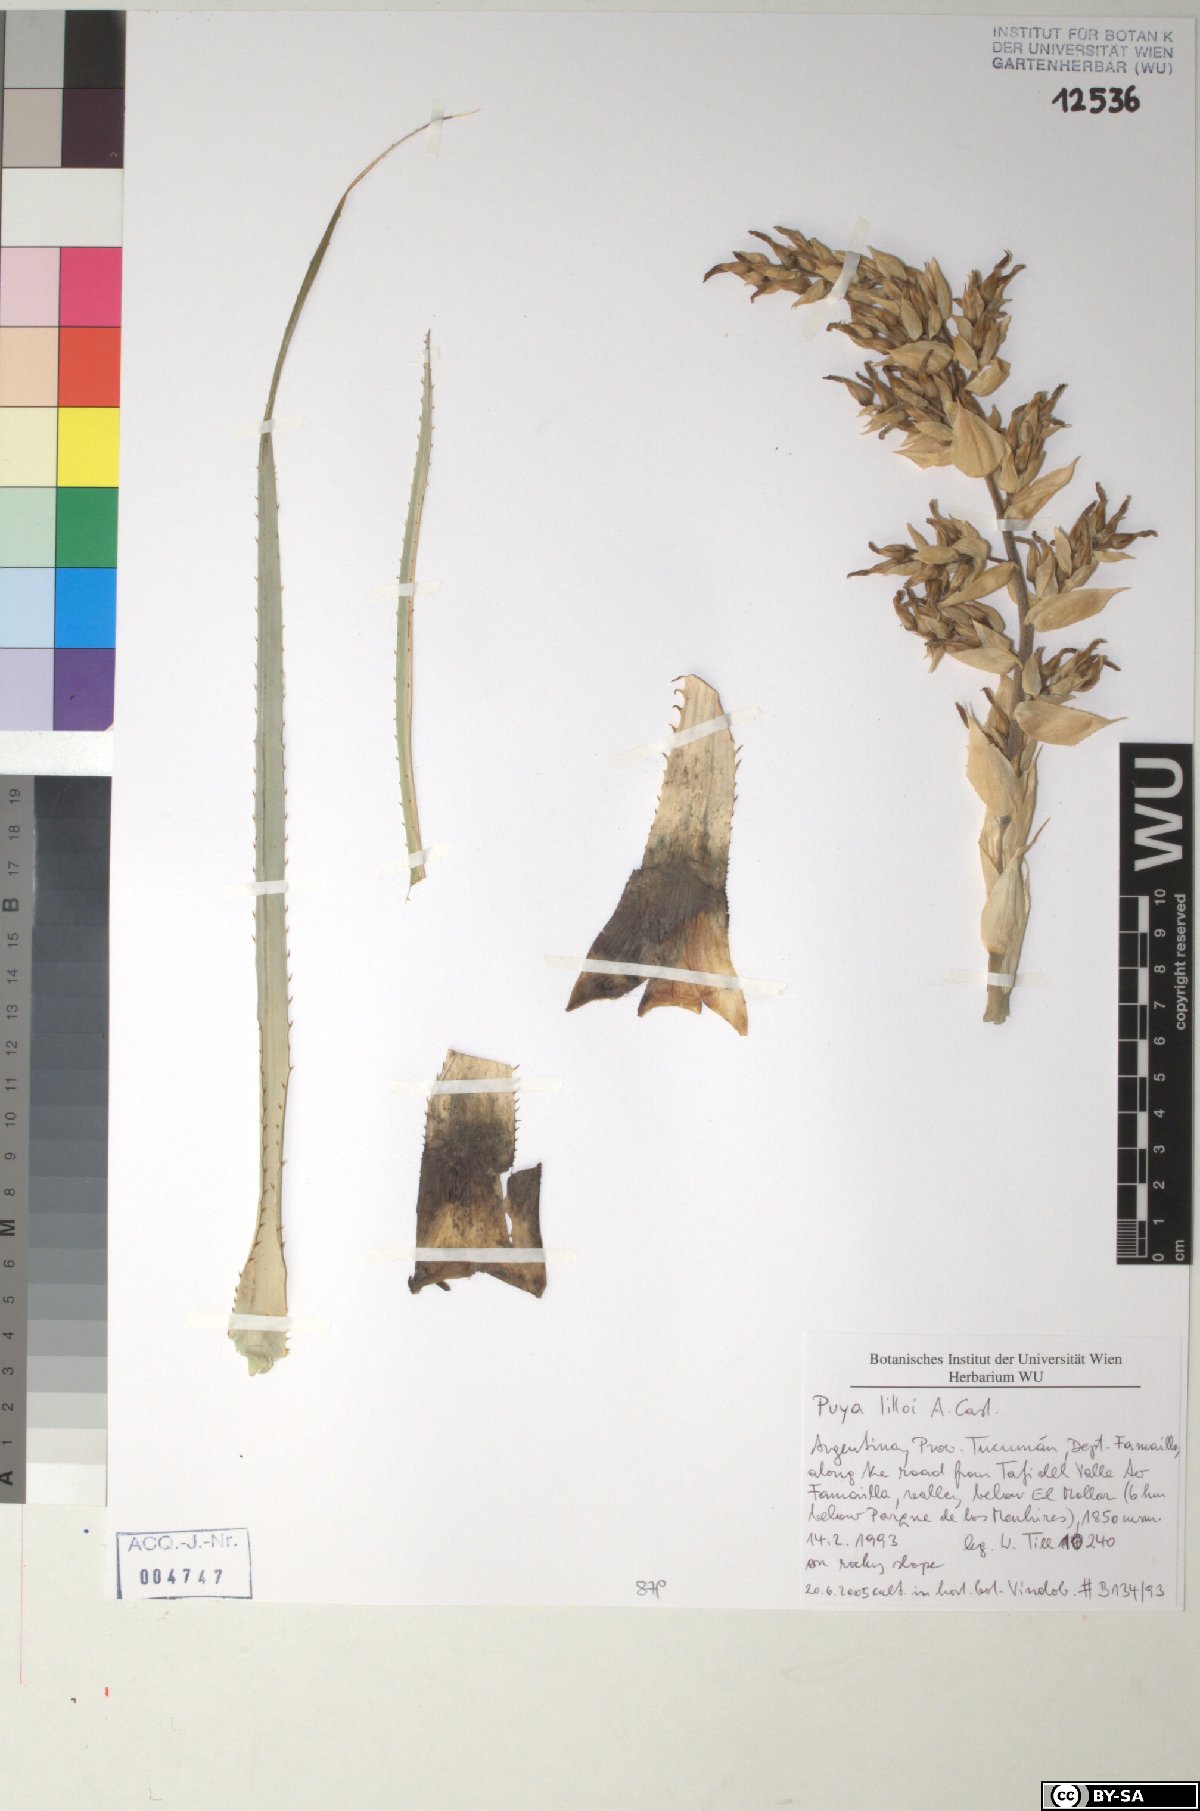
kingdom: Plantae
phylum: Tracheophyta
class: Liliopsida
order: Poales
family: Bromeliaceae
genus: Puya
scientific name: Puya lilloi
